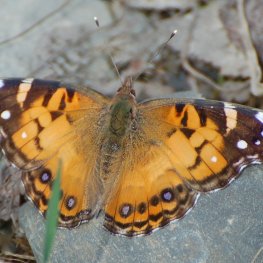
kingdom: Animalia
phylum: Arthropoda
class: Insecta
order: Lepidoptera
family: Nymphalidae
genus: Vanessa
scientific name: Vanessa virginiensis
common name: American Lady
